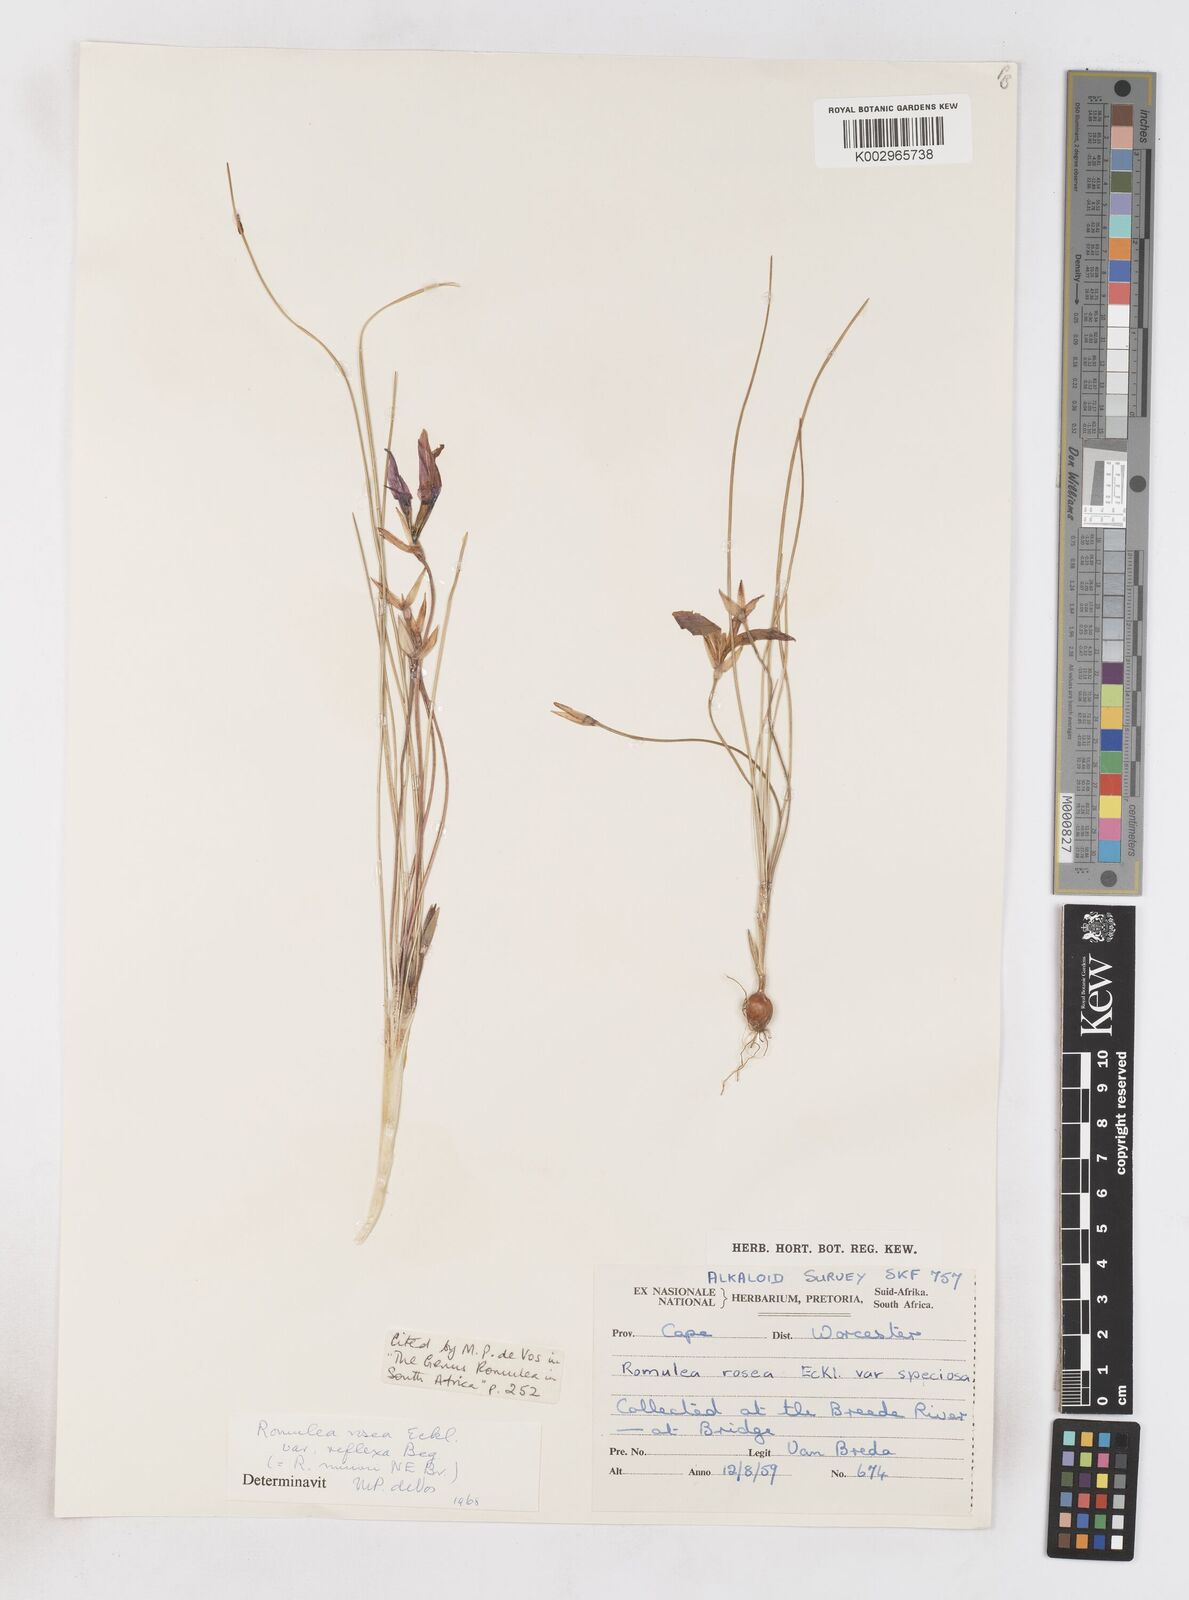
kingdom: Plantae
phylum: Tracheophyta
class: Liliopsida
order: Asparagales
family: Iridaceae
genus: Romulea
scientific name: Romulea rosea
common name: Oniongrass
